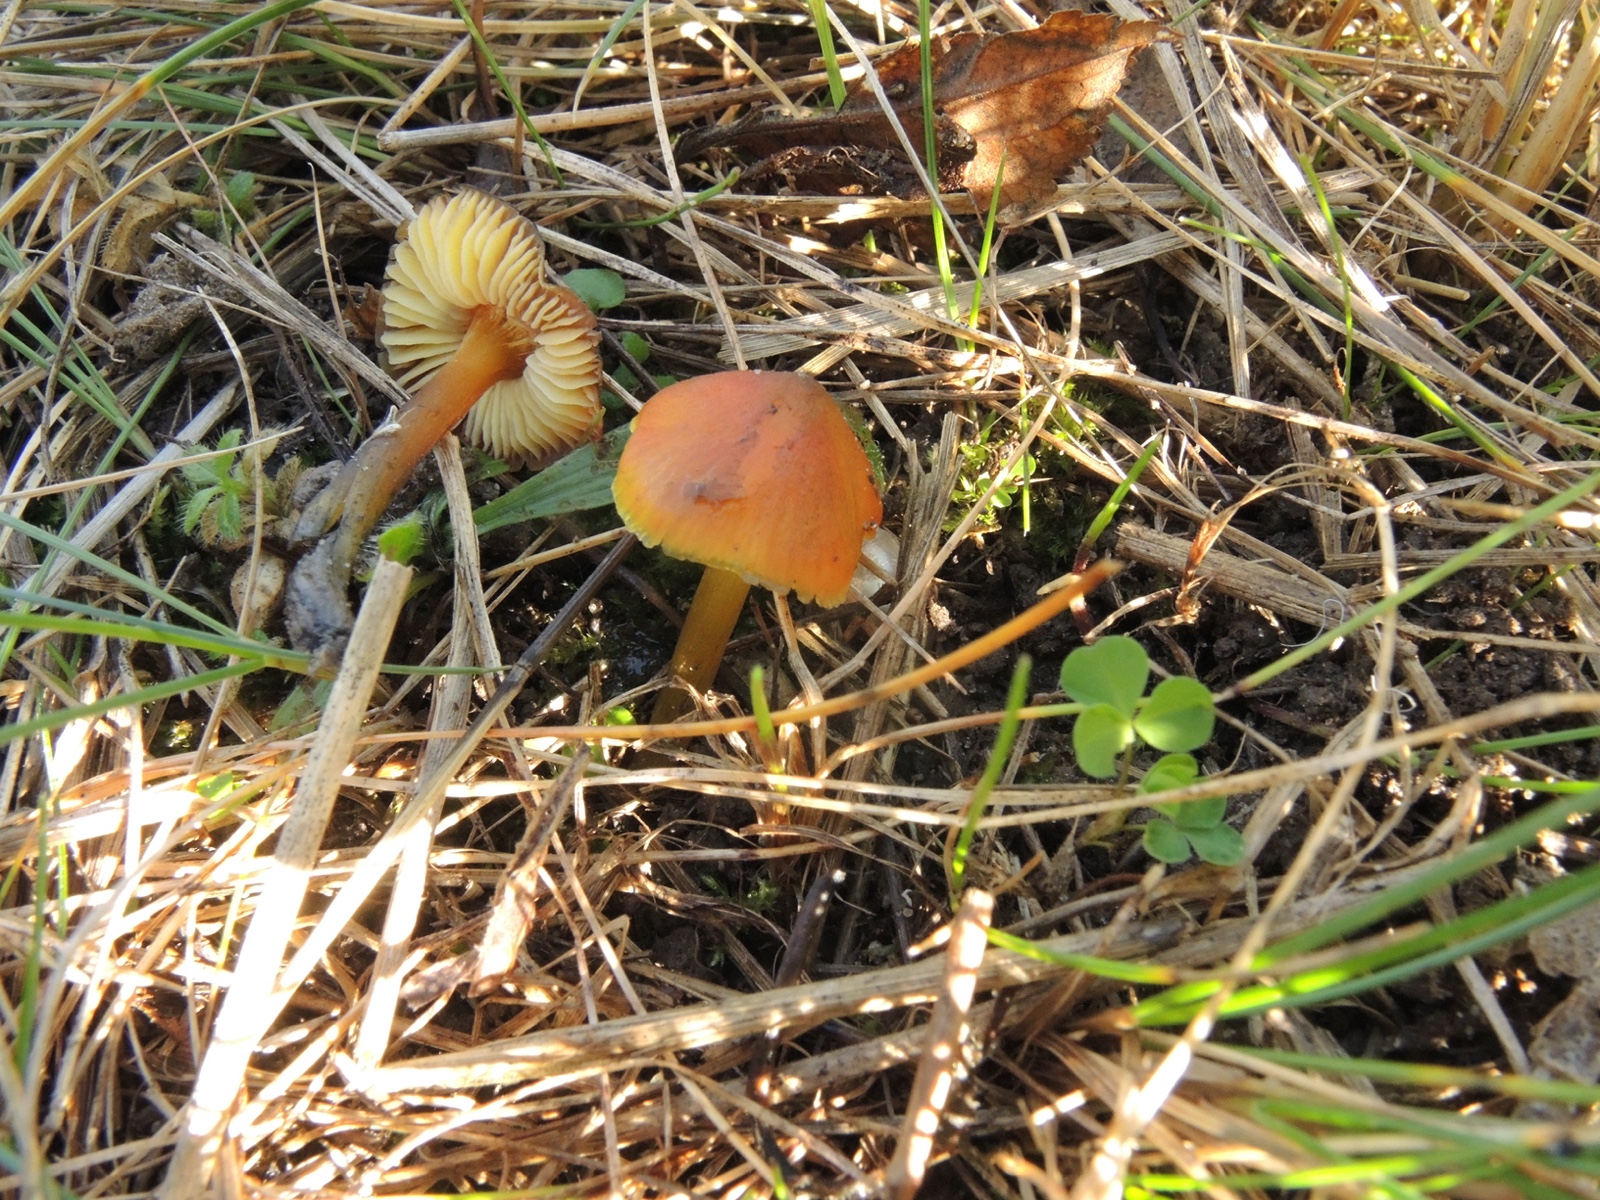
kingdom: Fungi
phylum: Basidiomycota
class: Agaricomycetes
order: Agaricales
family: Hygrophoraceae
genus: Hygrocybe
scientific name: Hygrocybe conica
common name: kegle-vokshat
